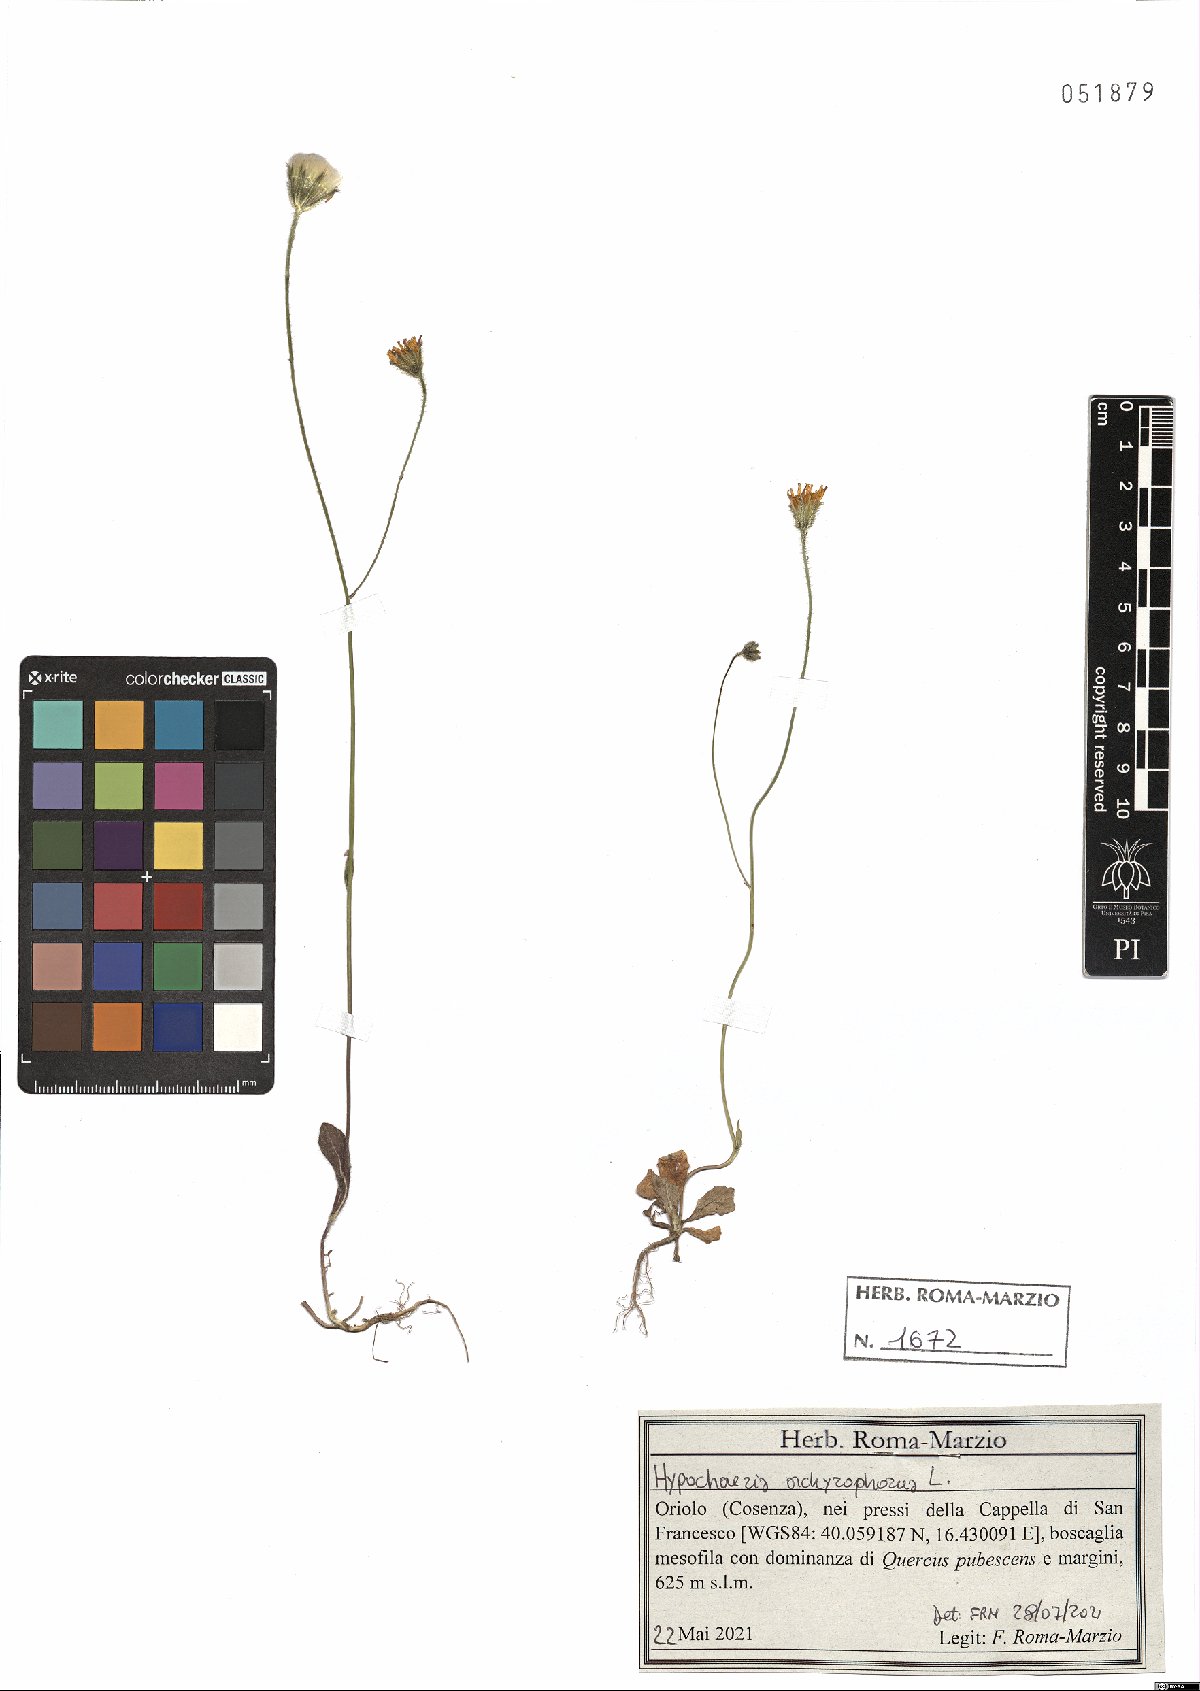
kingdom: Plantae
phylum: Tracheophyta
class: Magnoliopsida
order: Asterales
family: Asteraceae
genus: Achyrophorus
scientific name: Achyrophorus valdesii
